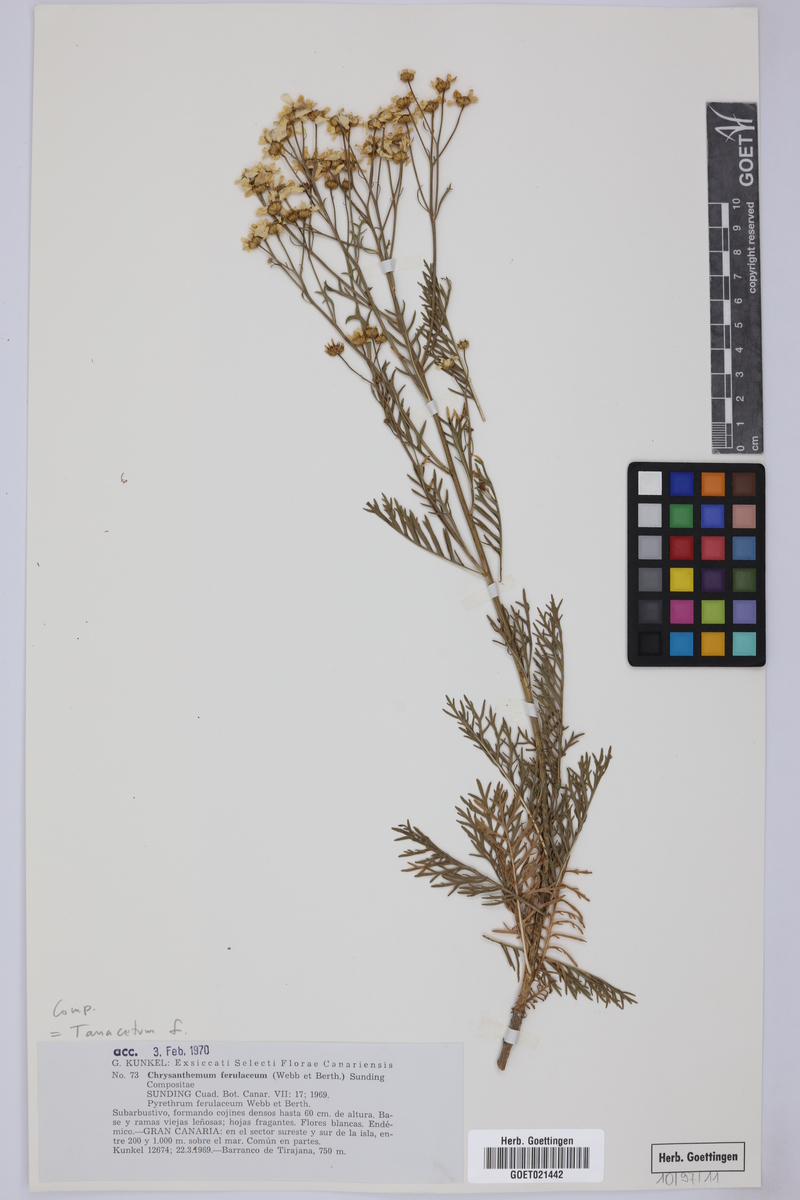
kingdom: Plantae
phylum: Tracheophyta
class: Magnoliopsida
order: Asterales
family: Asteraceae
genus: Gonospermum
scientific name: Gonospermum ferulaceum
